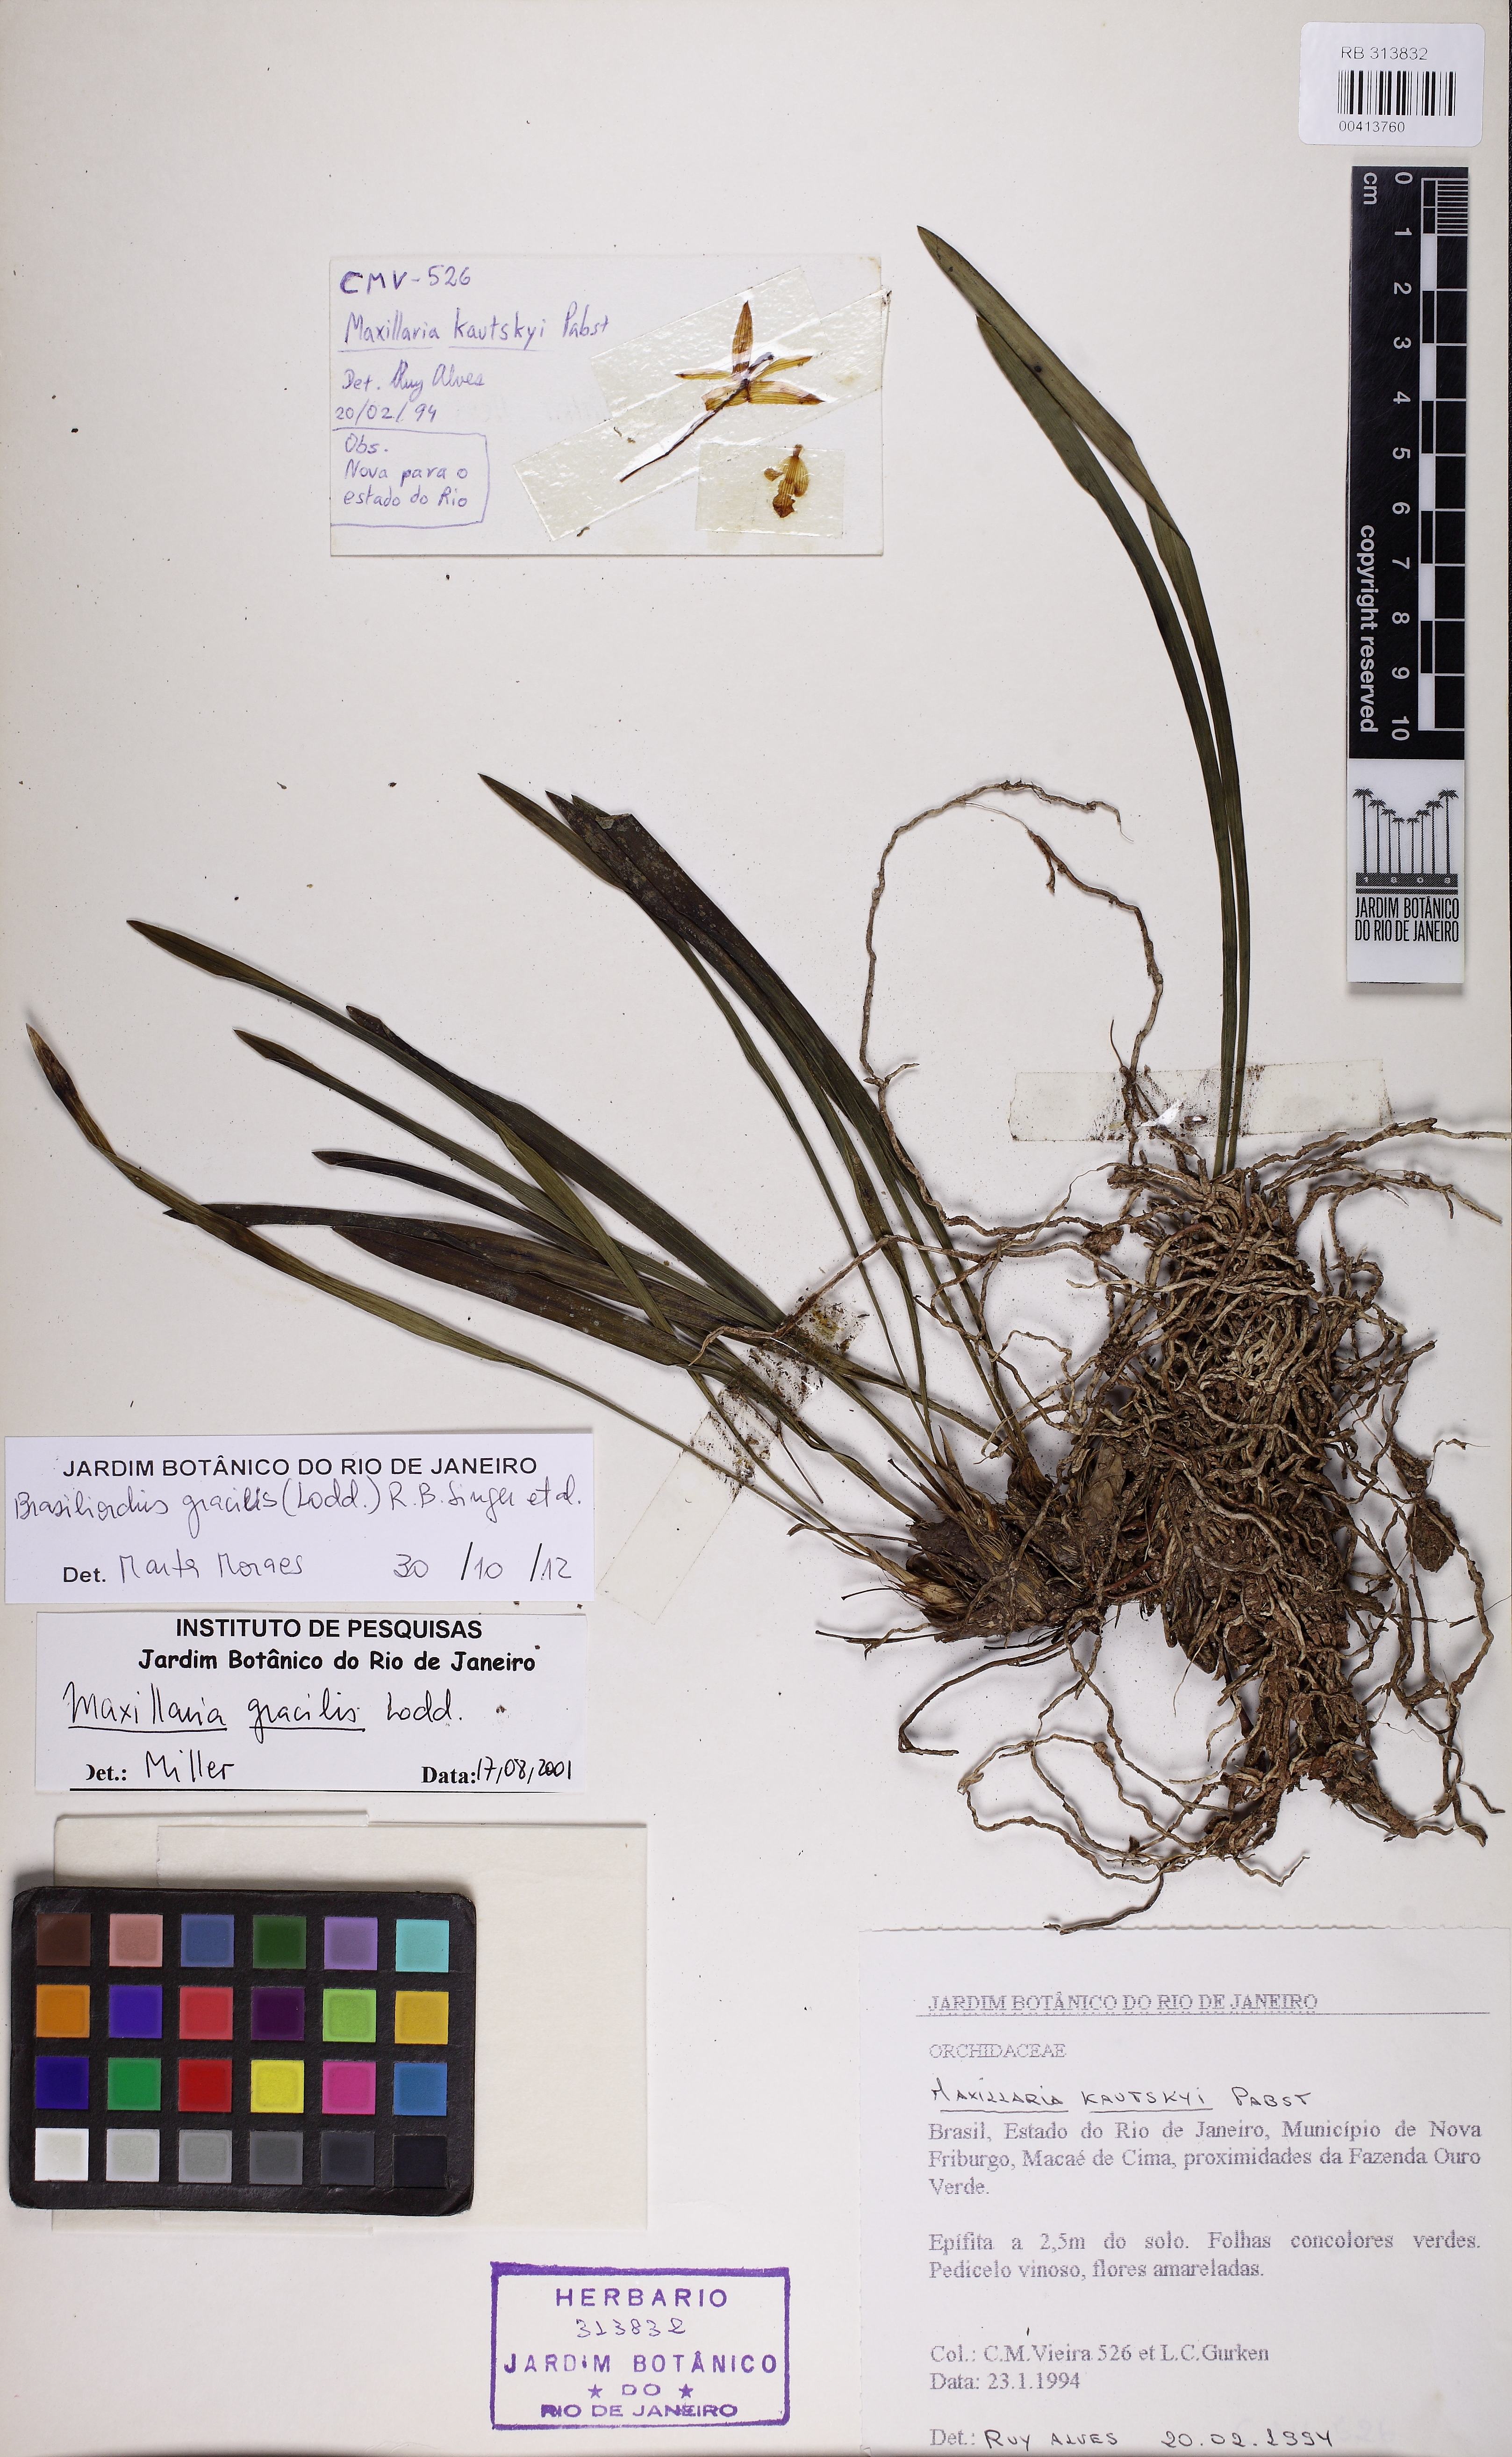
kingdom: Plantae
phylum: Tracheophyta
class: Liliopsida
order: Asparagales
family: Orchidaceae
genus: Maxillaria
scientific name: Maxillaria humilis
